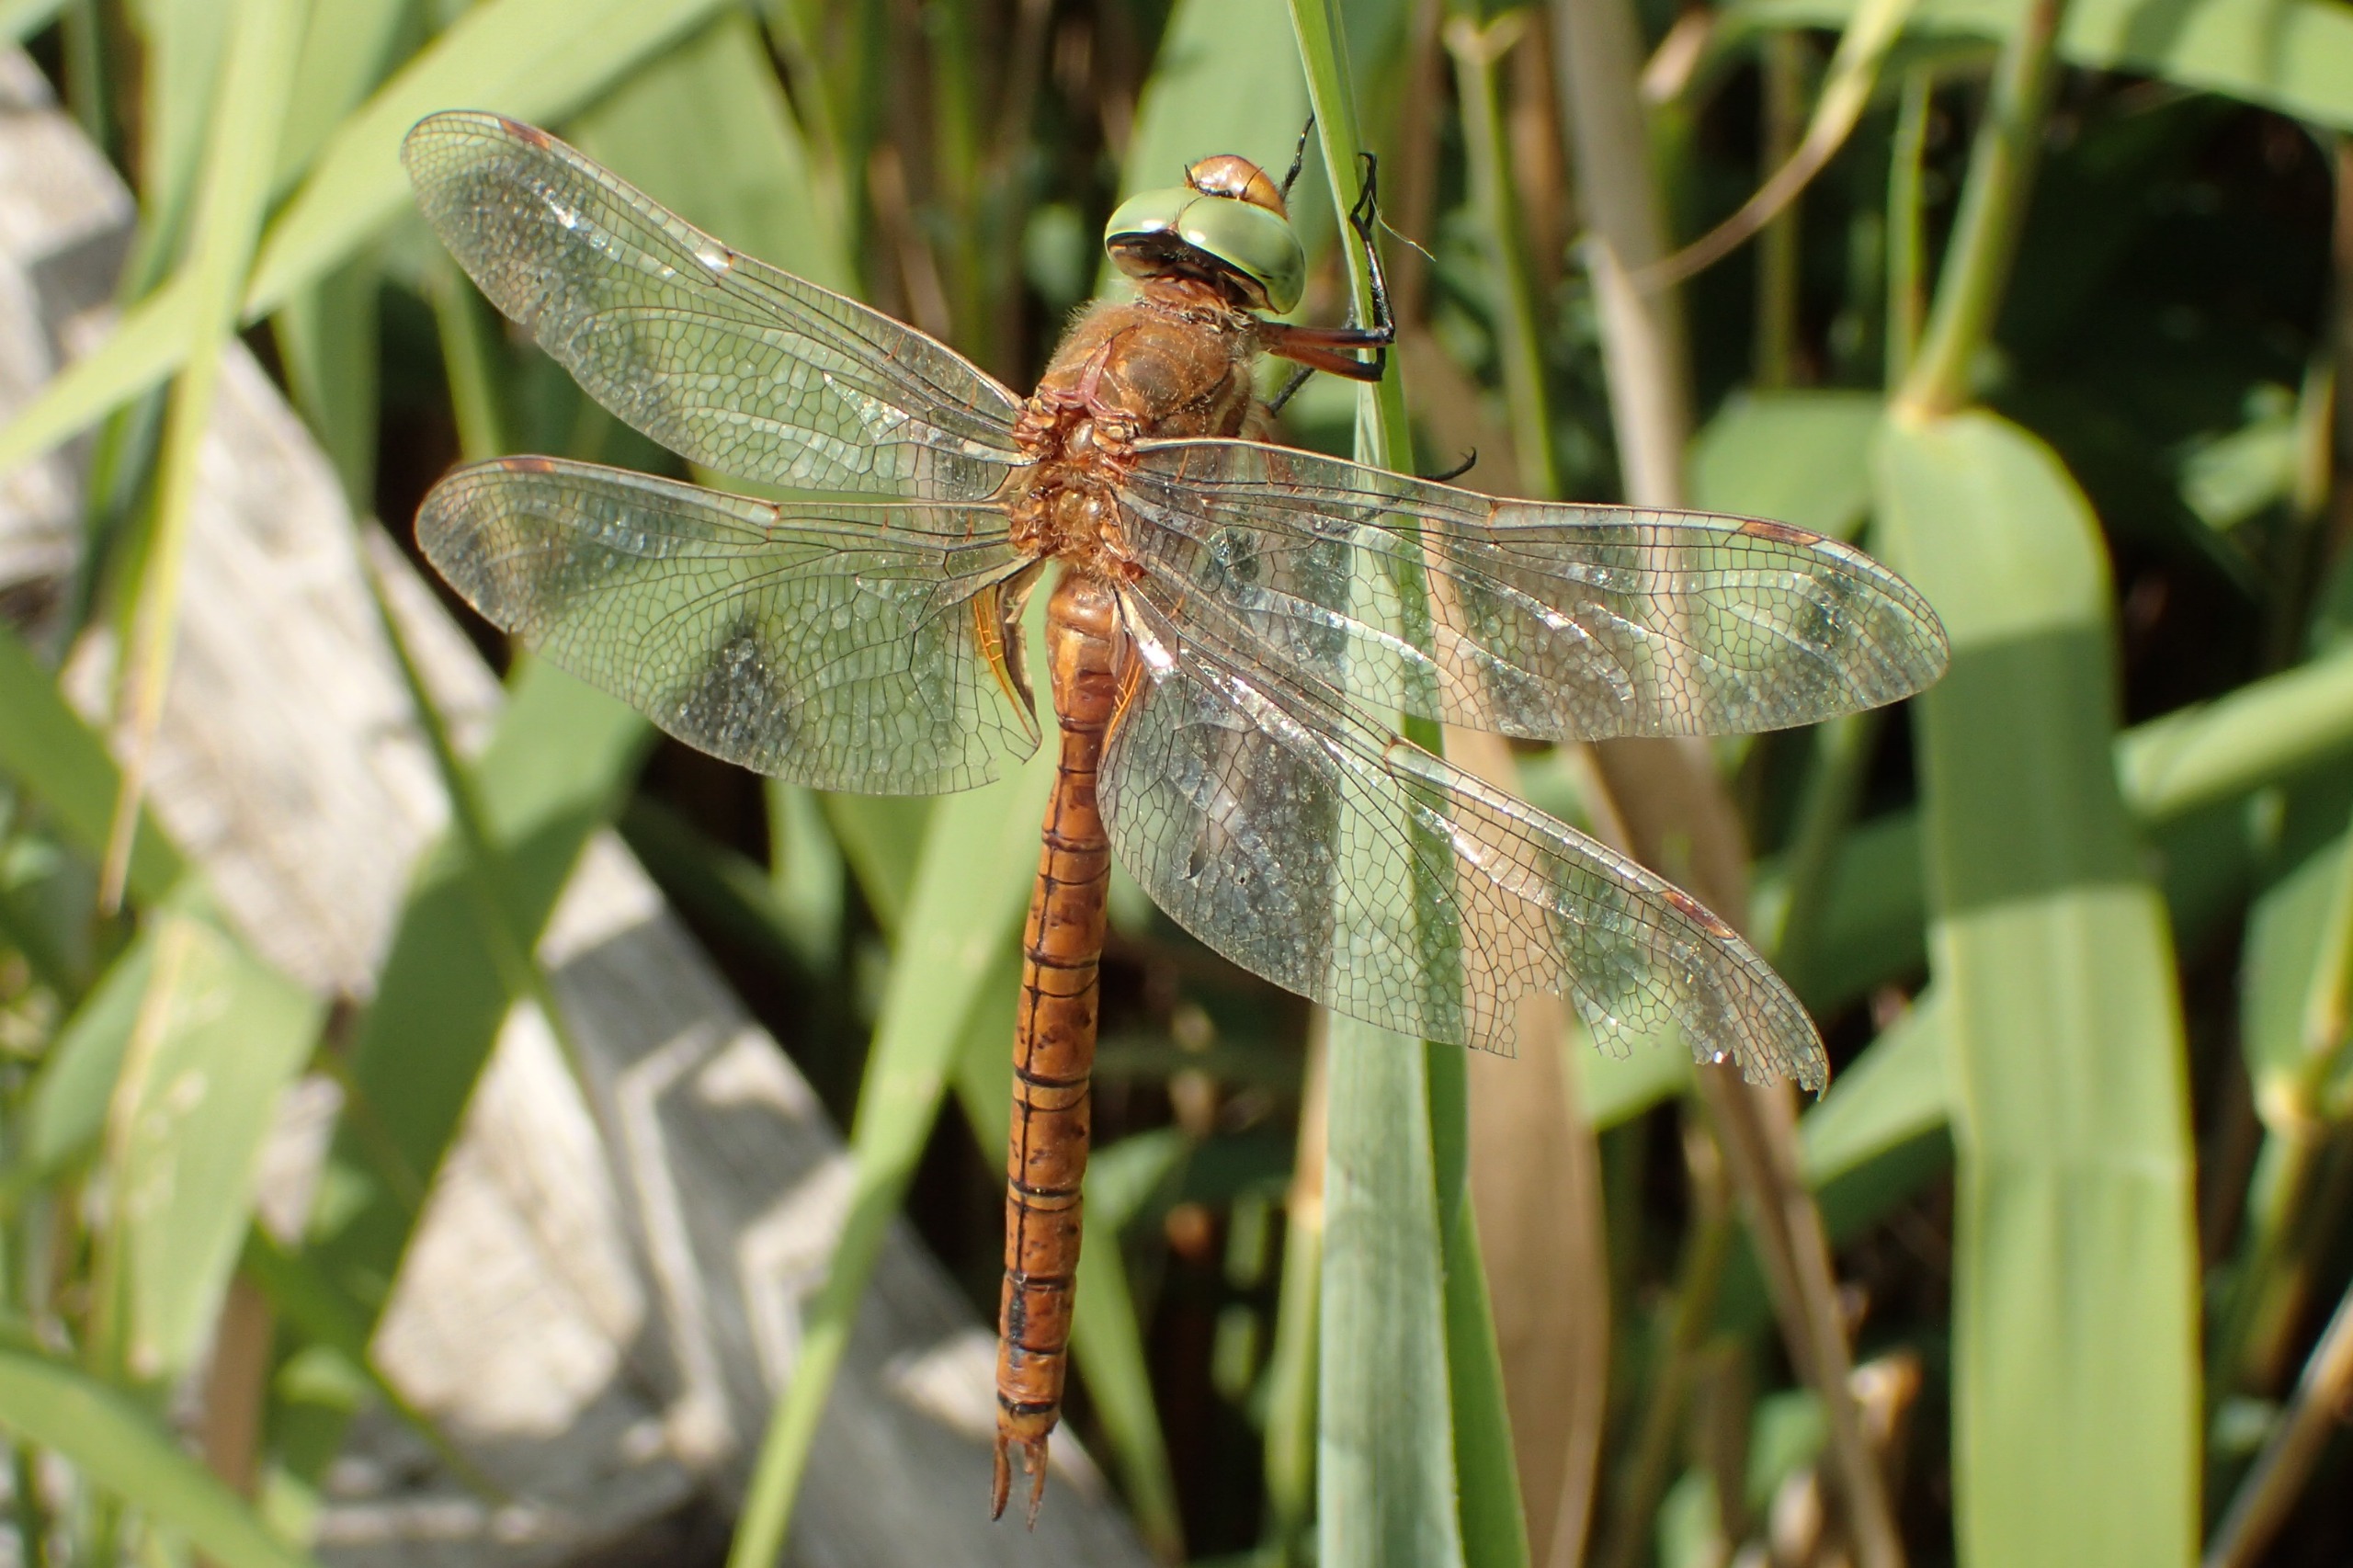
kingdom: Animalia
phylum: Arthropoda
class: Insecta
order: Odonata
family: Aeshnidae
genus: Aeshna
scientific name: Aeshna isoceles
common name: Kileplet-mosaikguldsmed
